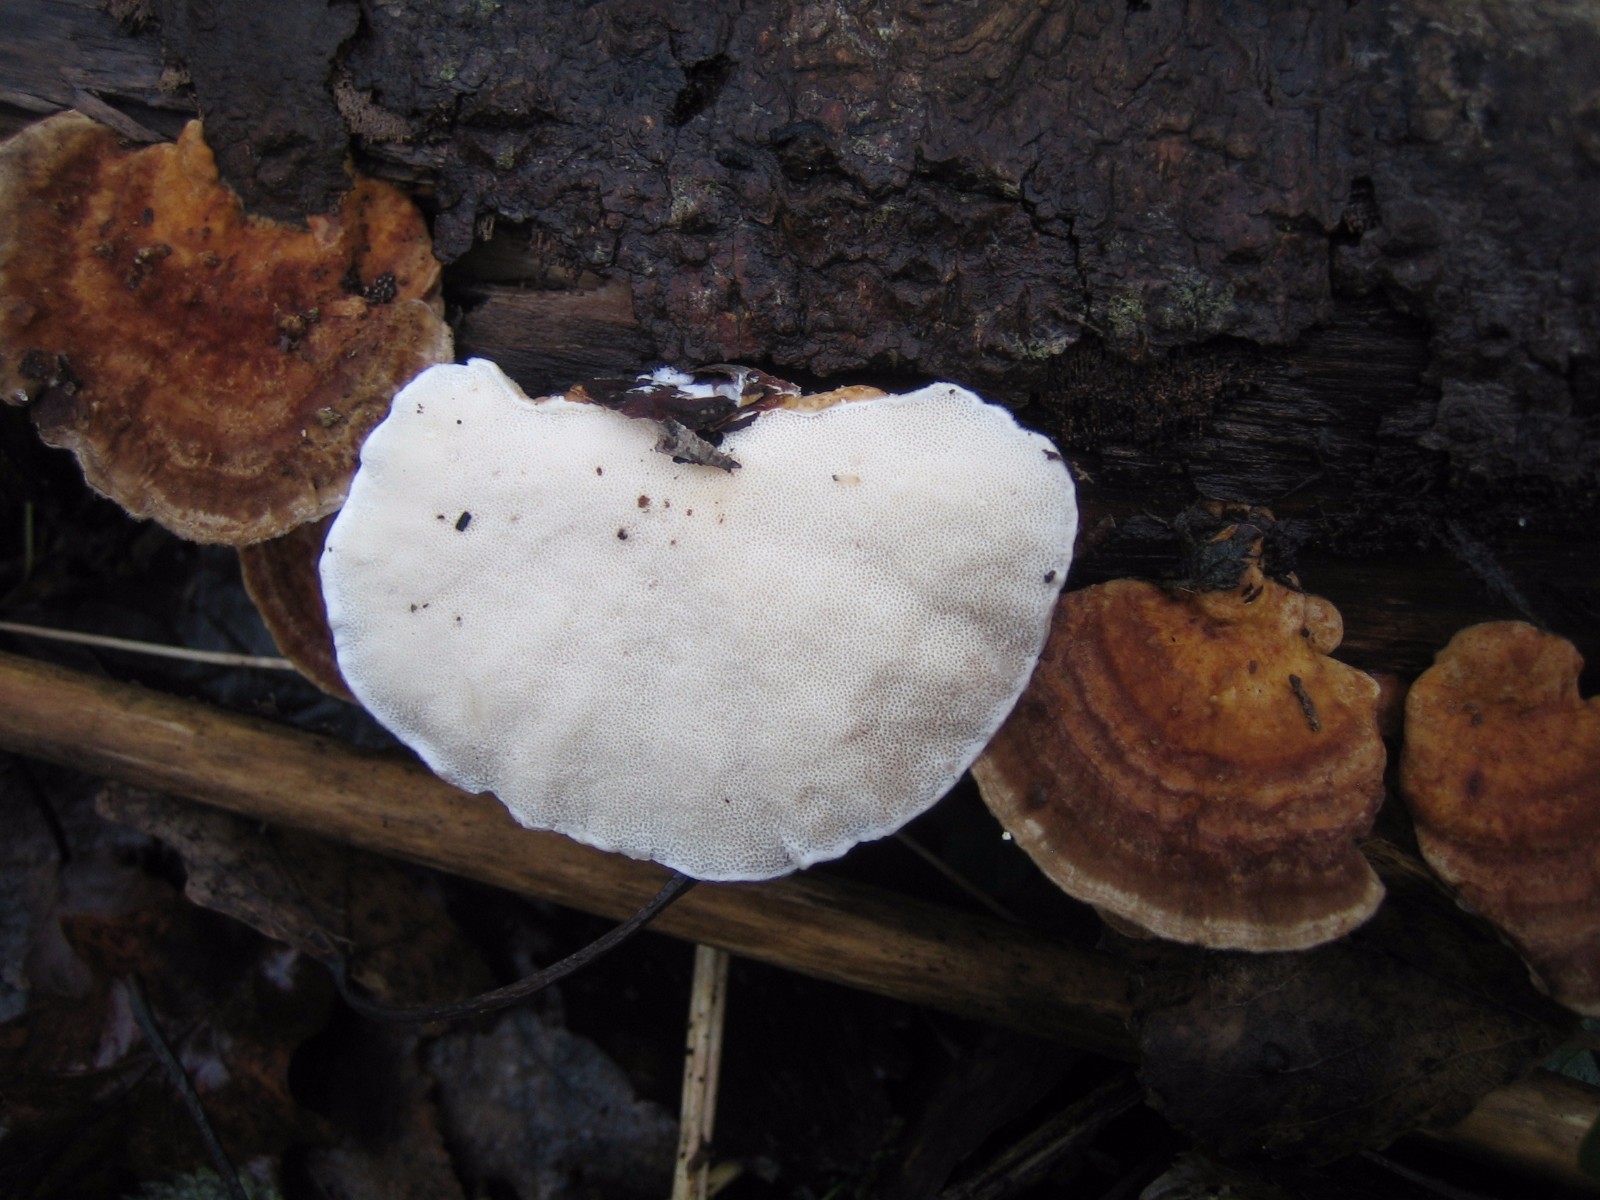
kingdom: Fungi
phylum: Basidiomycota
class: Agaricomycetes
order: Polyporales
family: Polyporaceae
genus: Trametes
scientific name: Trametes ochracea
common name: bæltet læderporesvamp
